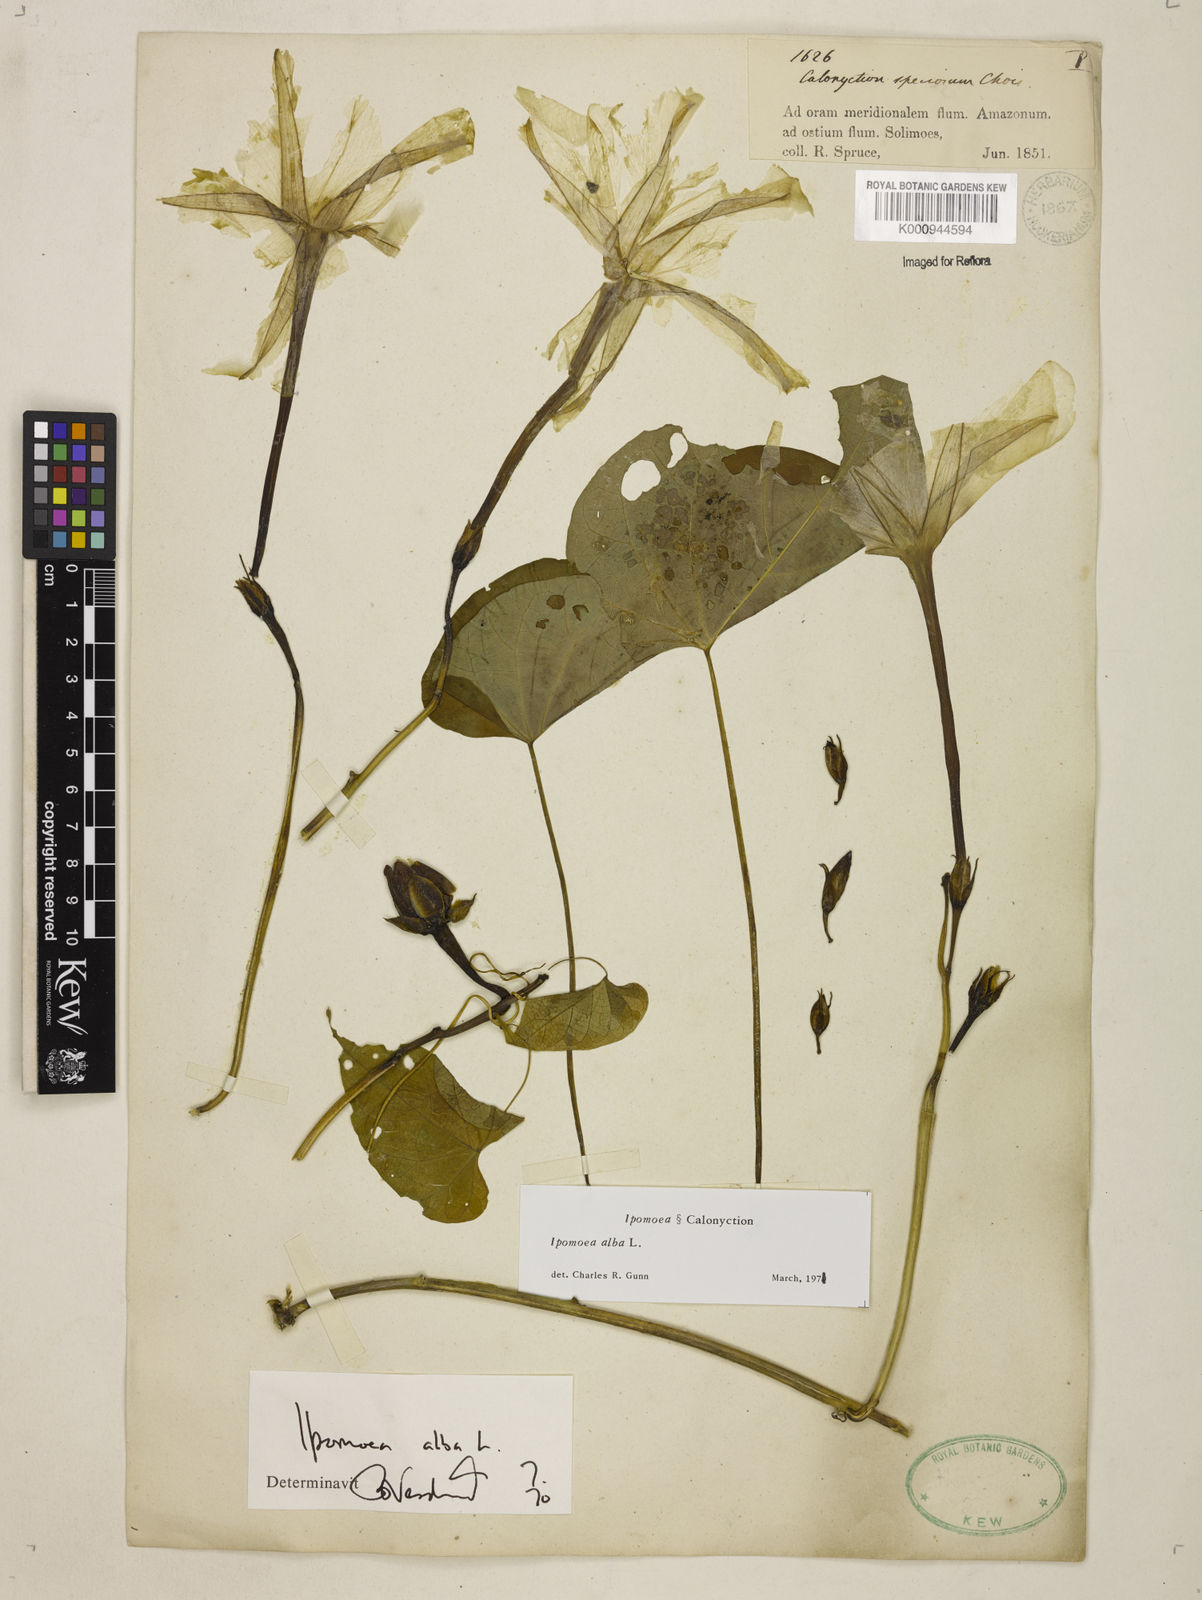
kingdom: Plantae
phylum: Tracheophyta
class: Magnoliopsida
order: Solanales
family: Convolvulaceae
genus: Ipomoea
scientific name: Ipomoea alba
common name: Moonflower
